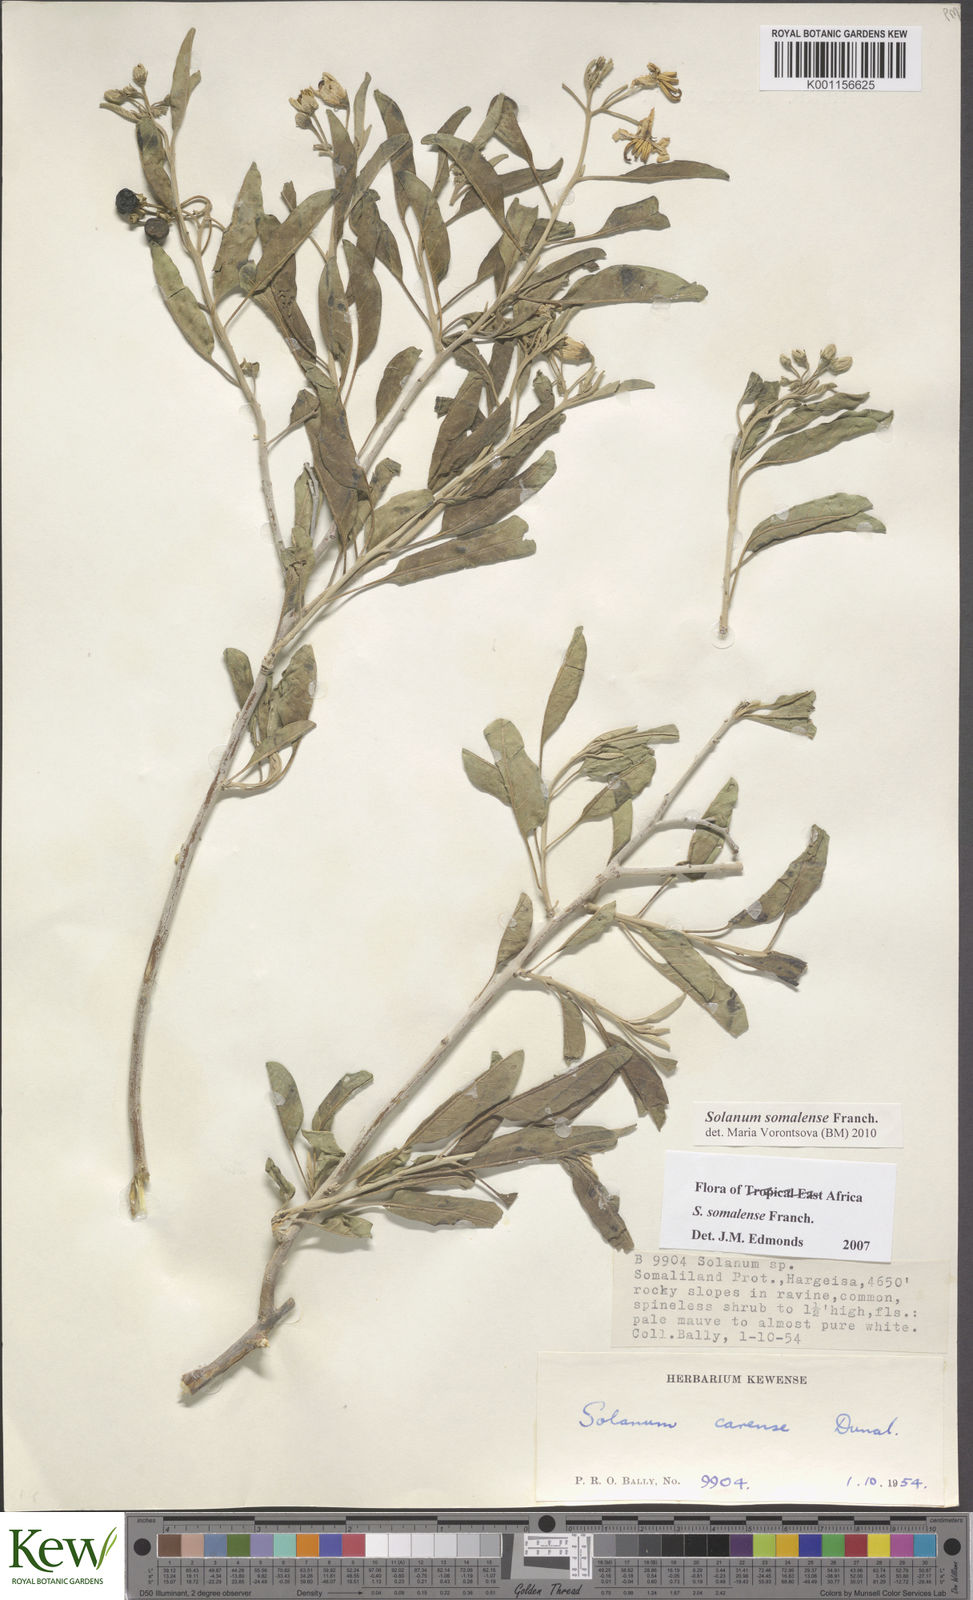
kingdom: Plantae
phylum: Tracheophyta
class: Magnoliopsida
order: Solanales
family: Solanaceae
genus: Solanum
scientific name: Solanum somalense
